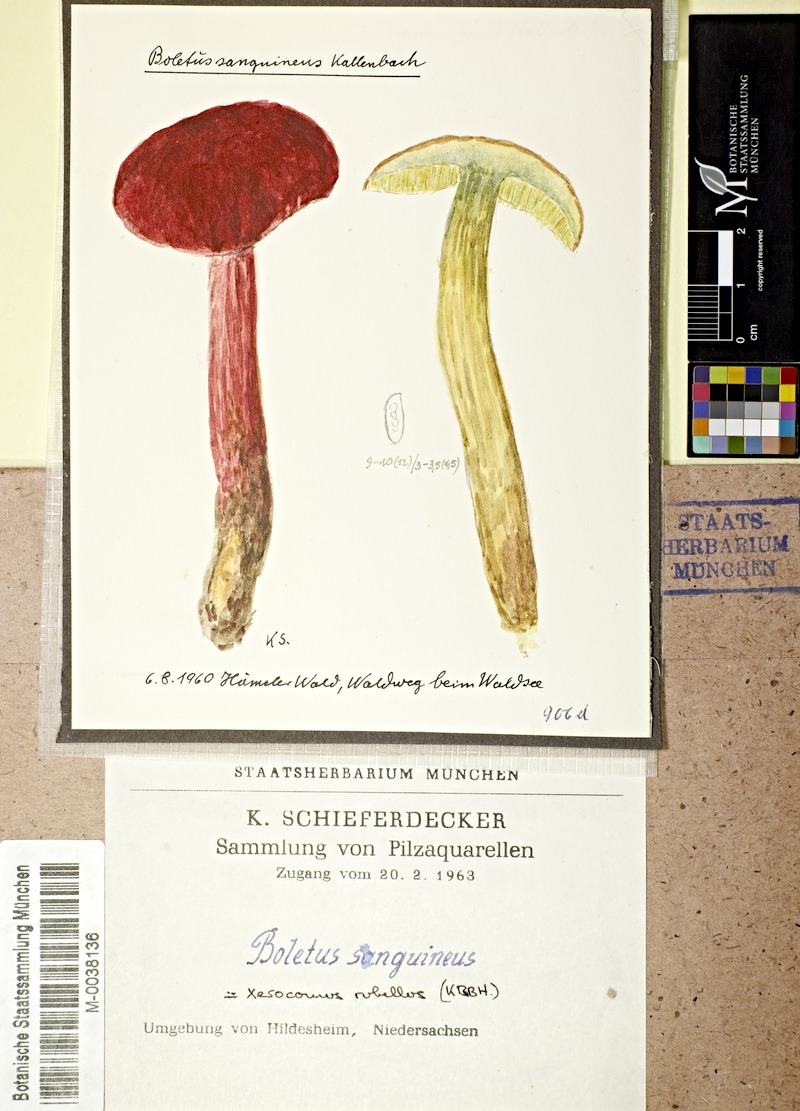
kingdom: Fungi
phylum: Basidiomycota
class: Agaricomycetes
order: Boletales
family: Boletaceae
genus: Hortiboletus
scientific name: Hortiboletus rubellus
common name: Ruby bolete
